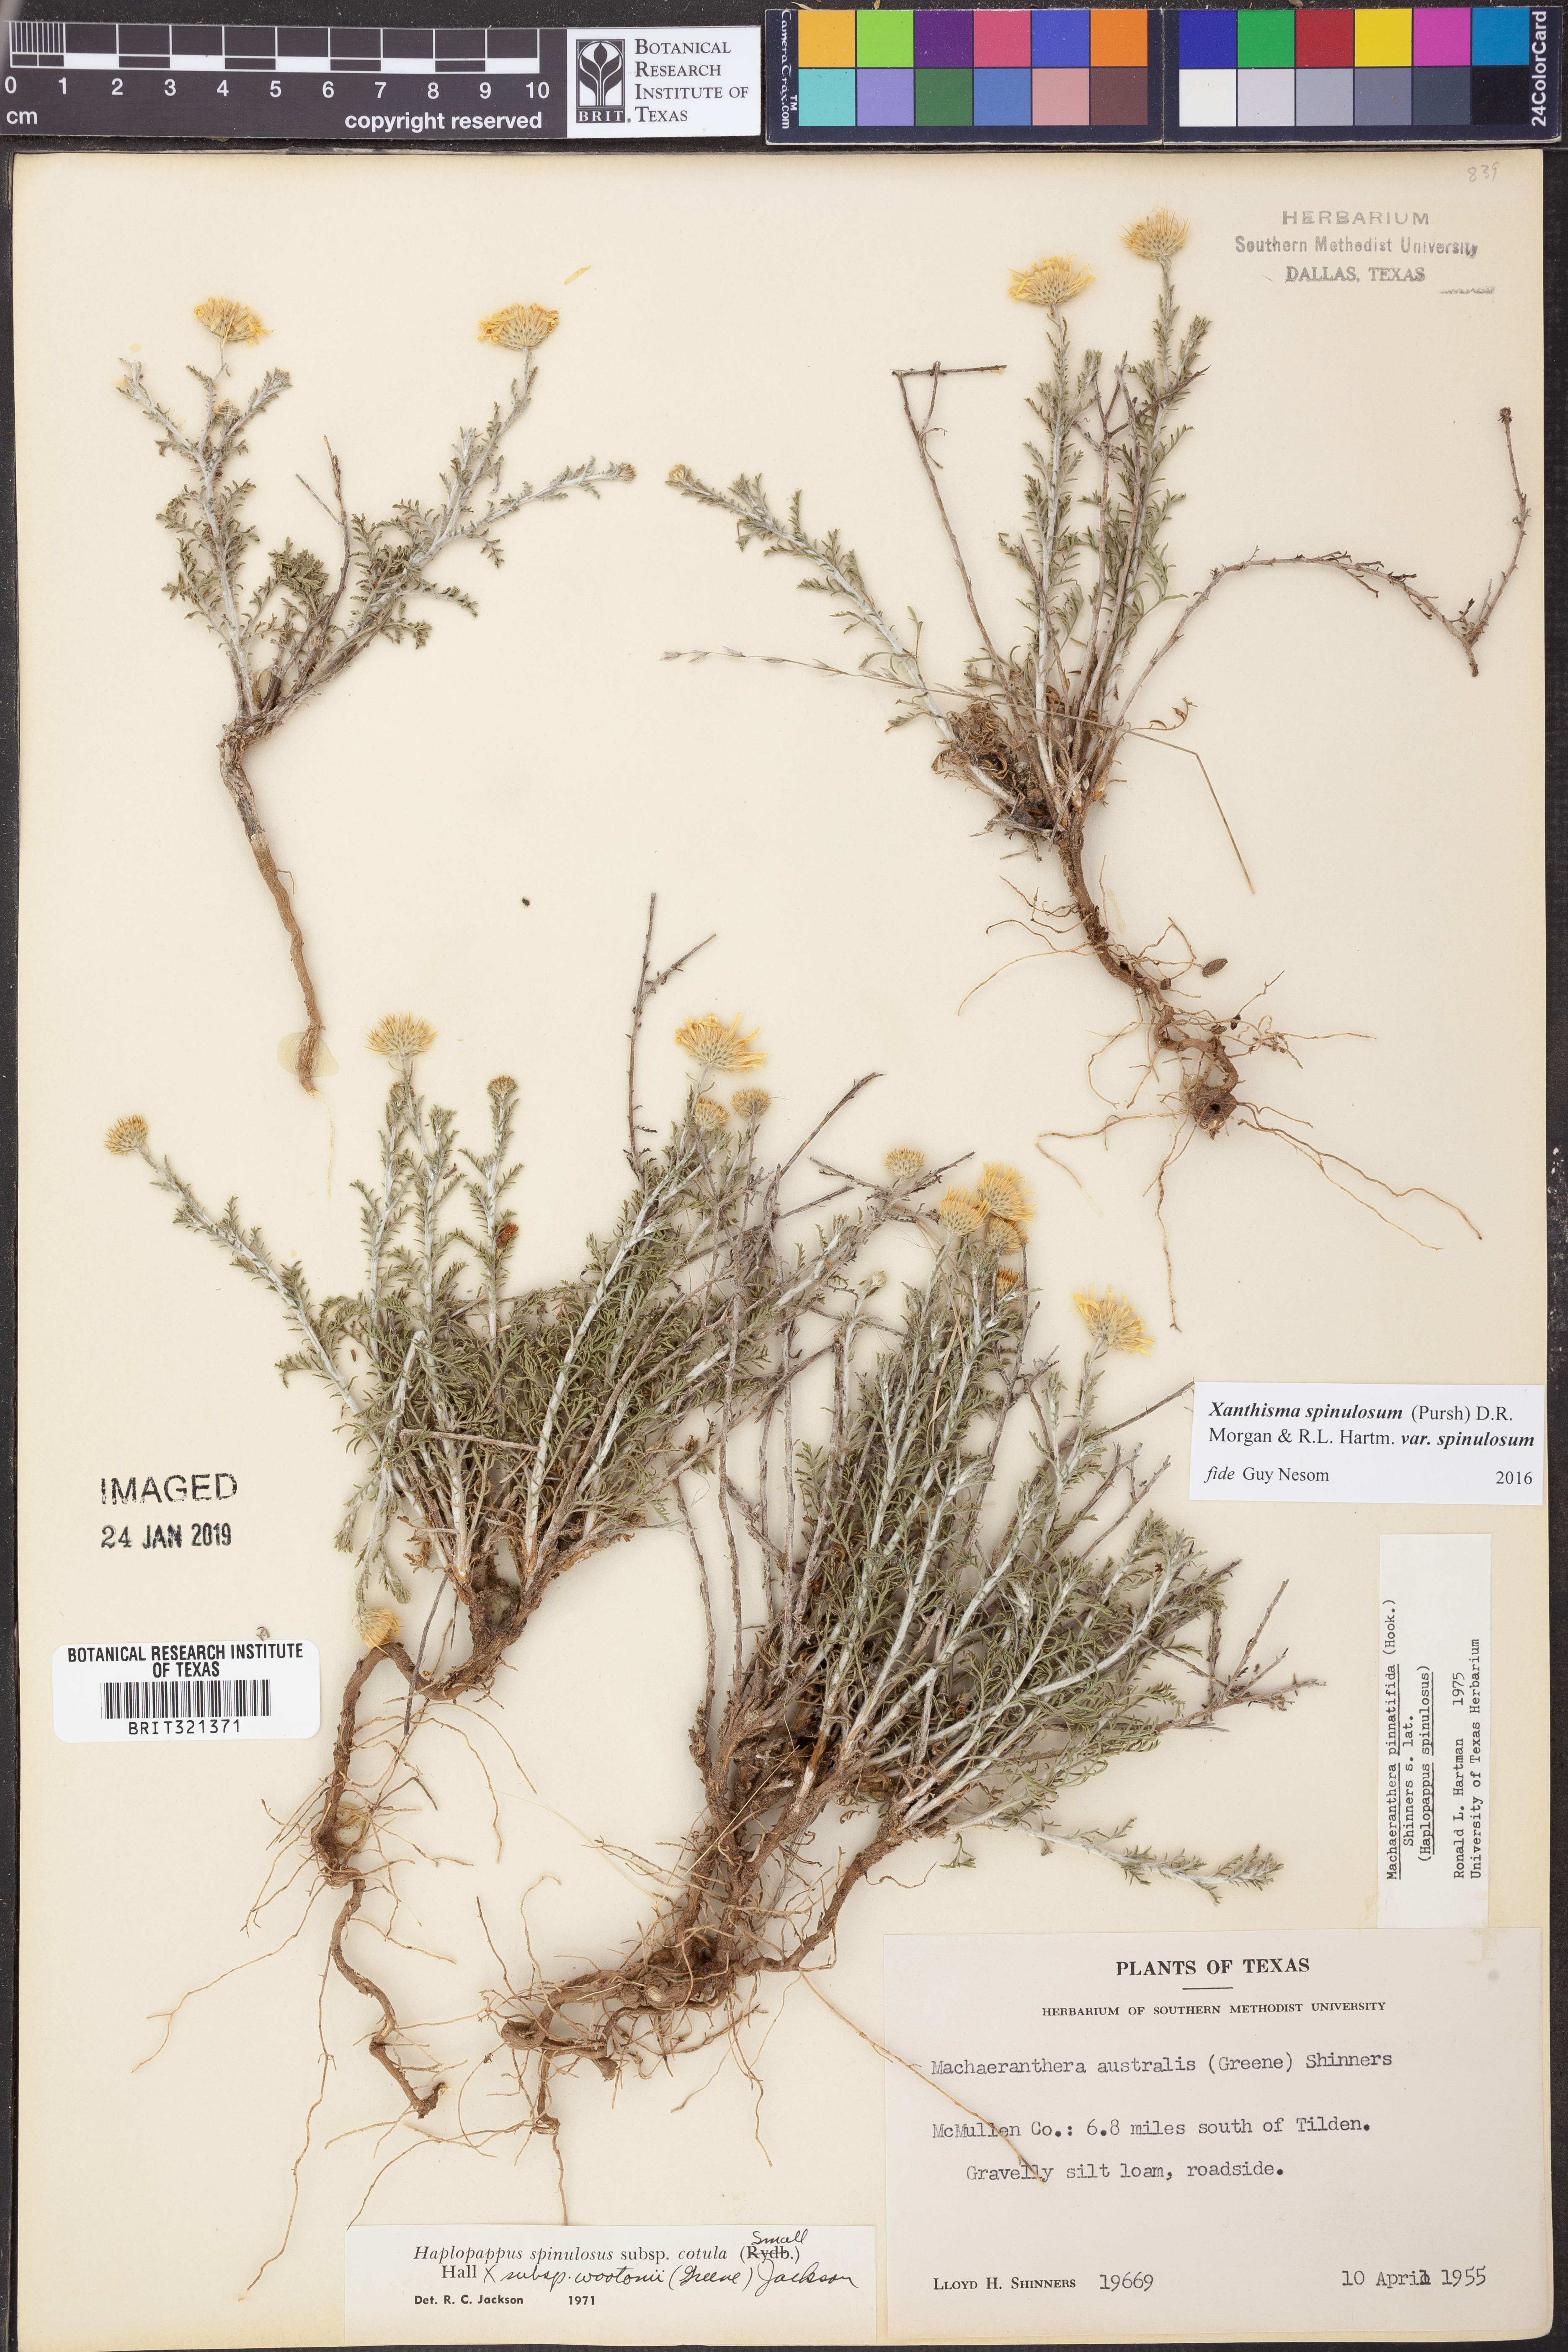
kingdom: Plantae
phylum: Tracheophyta
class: Magnoliopsida
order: Asterales
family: Asteraceae
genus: Xanthisma
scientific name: Xanthisma spinulosum
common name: Spiny goldenweed
